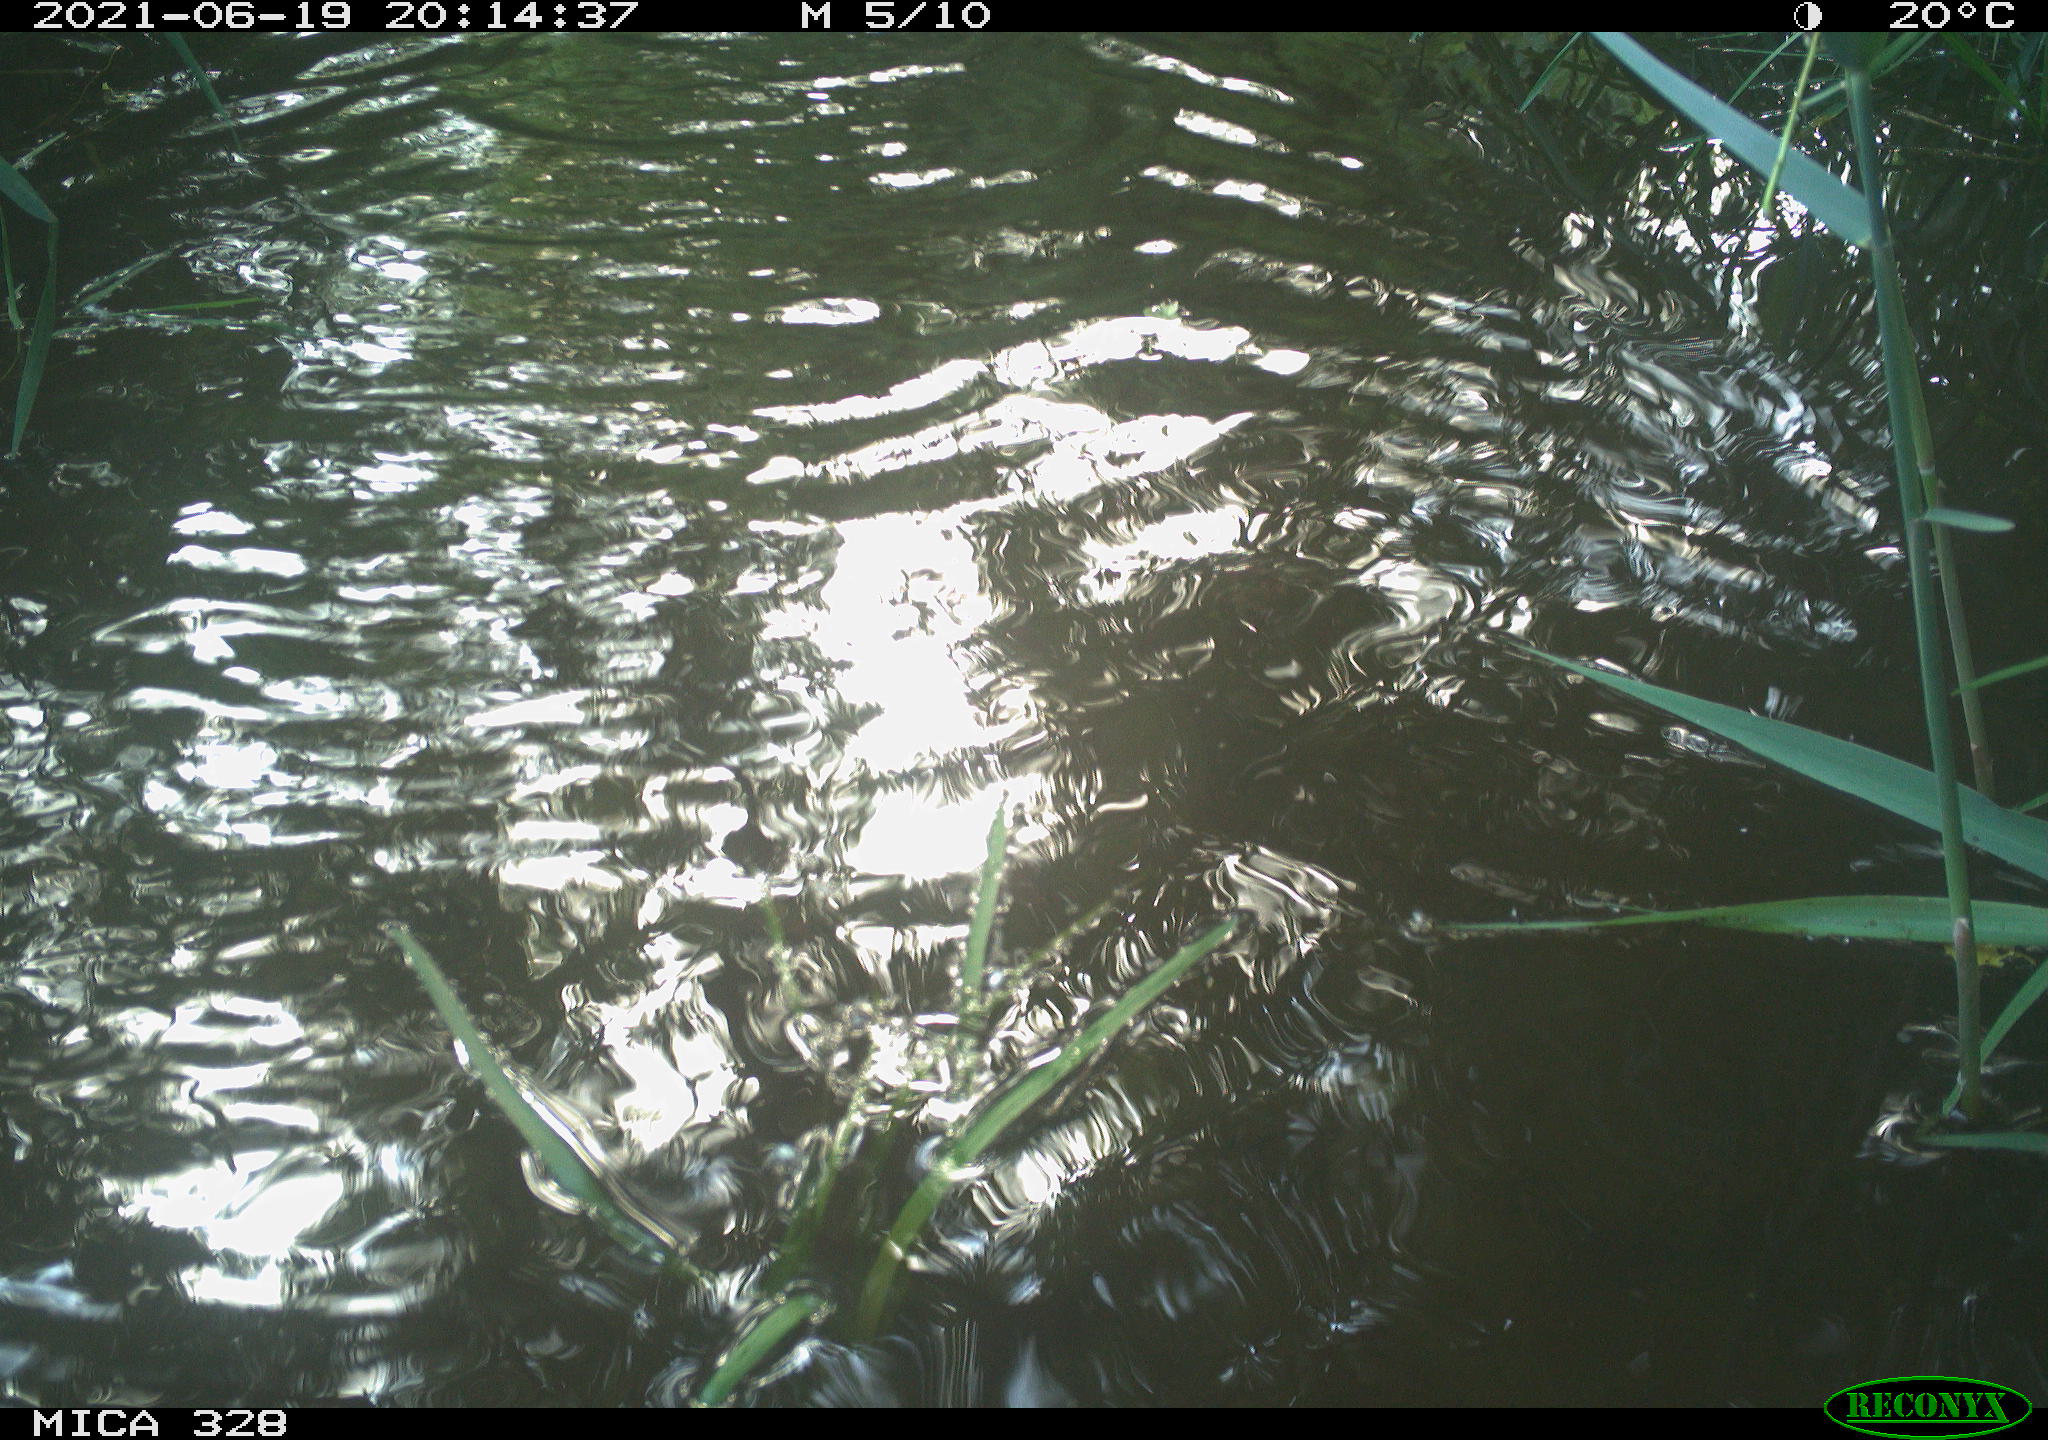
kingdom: Animalia
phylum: Chordata
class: Mammalia
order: Rodentia
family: Cricetidae
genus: Ondatra
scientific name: Ondatra zibethicus
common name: Muskrat
